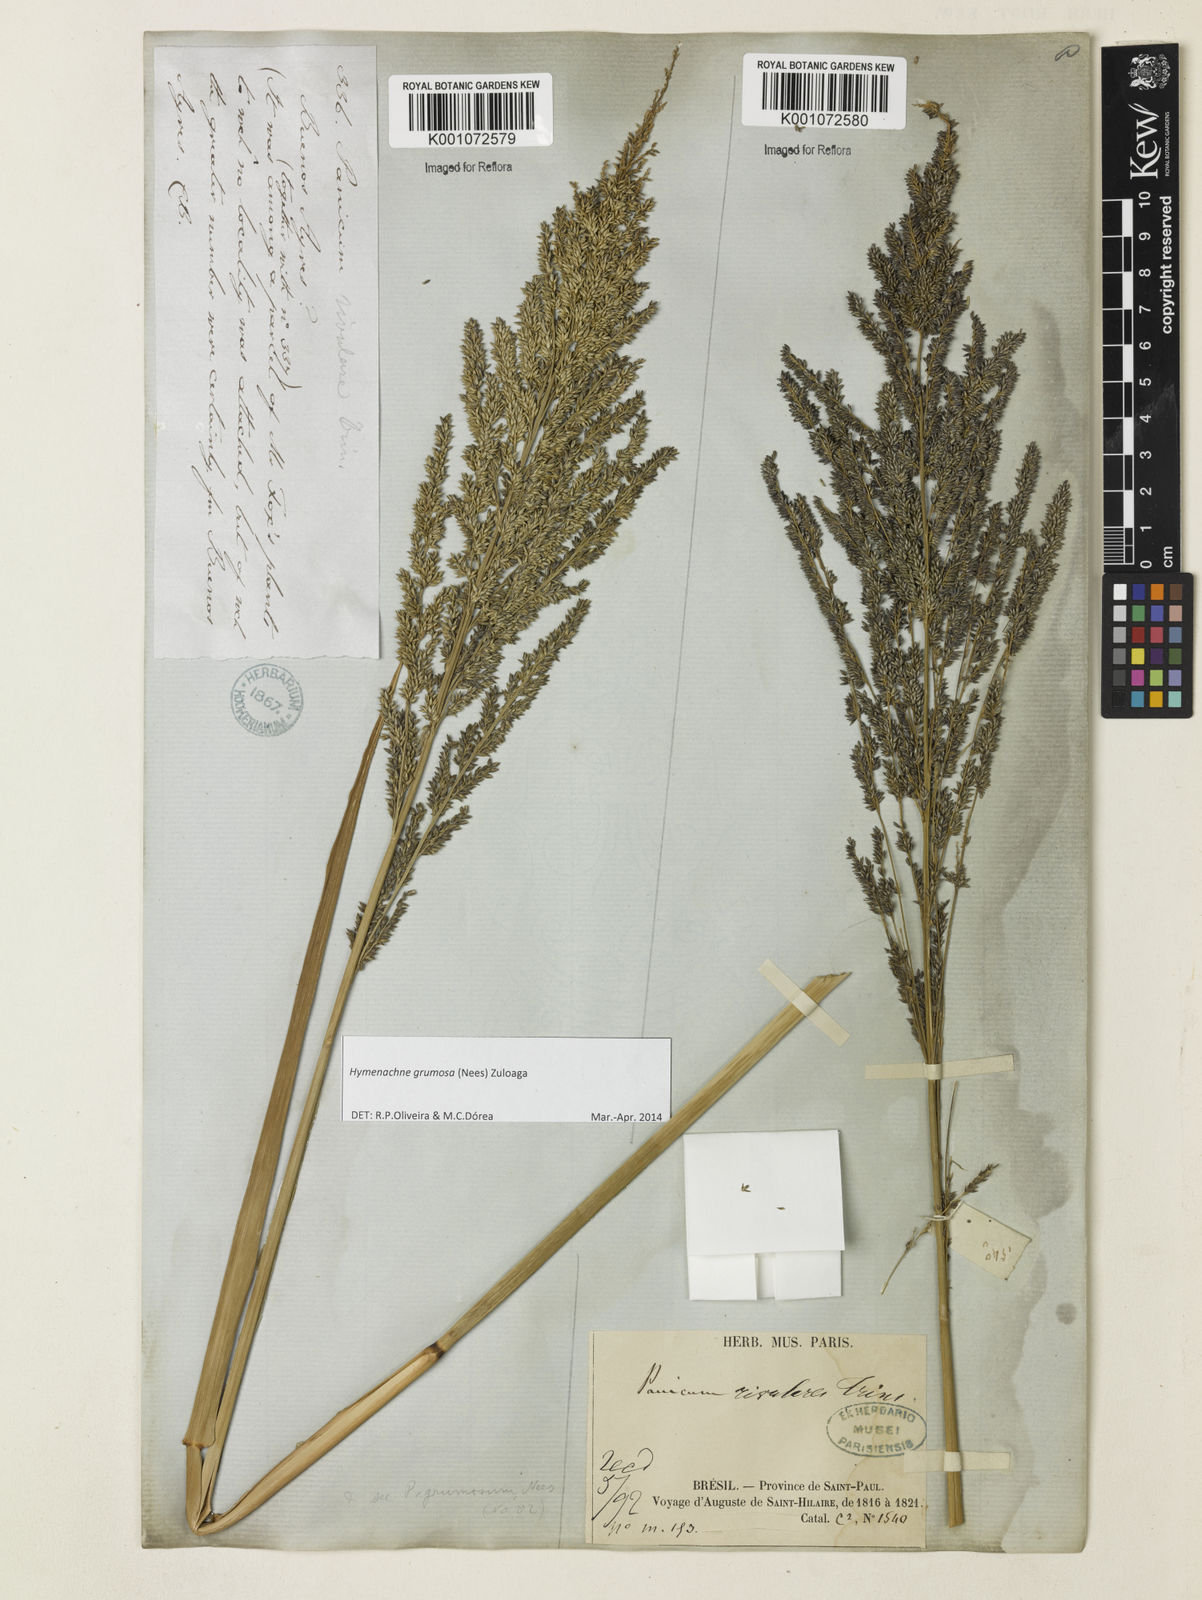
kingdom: Plantae
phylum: Tracheophyta
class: Liliopsida
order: Poales
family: Poaceae
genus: Hymenachne
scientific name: Hymenachne grumosa
